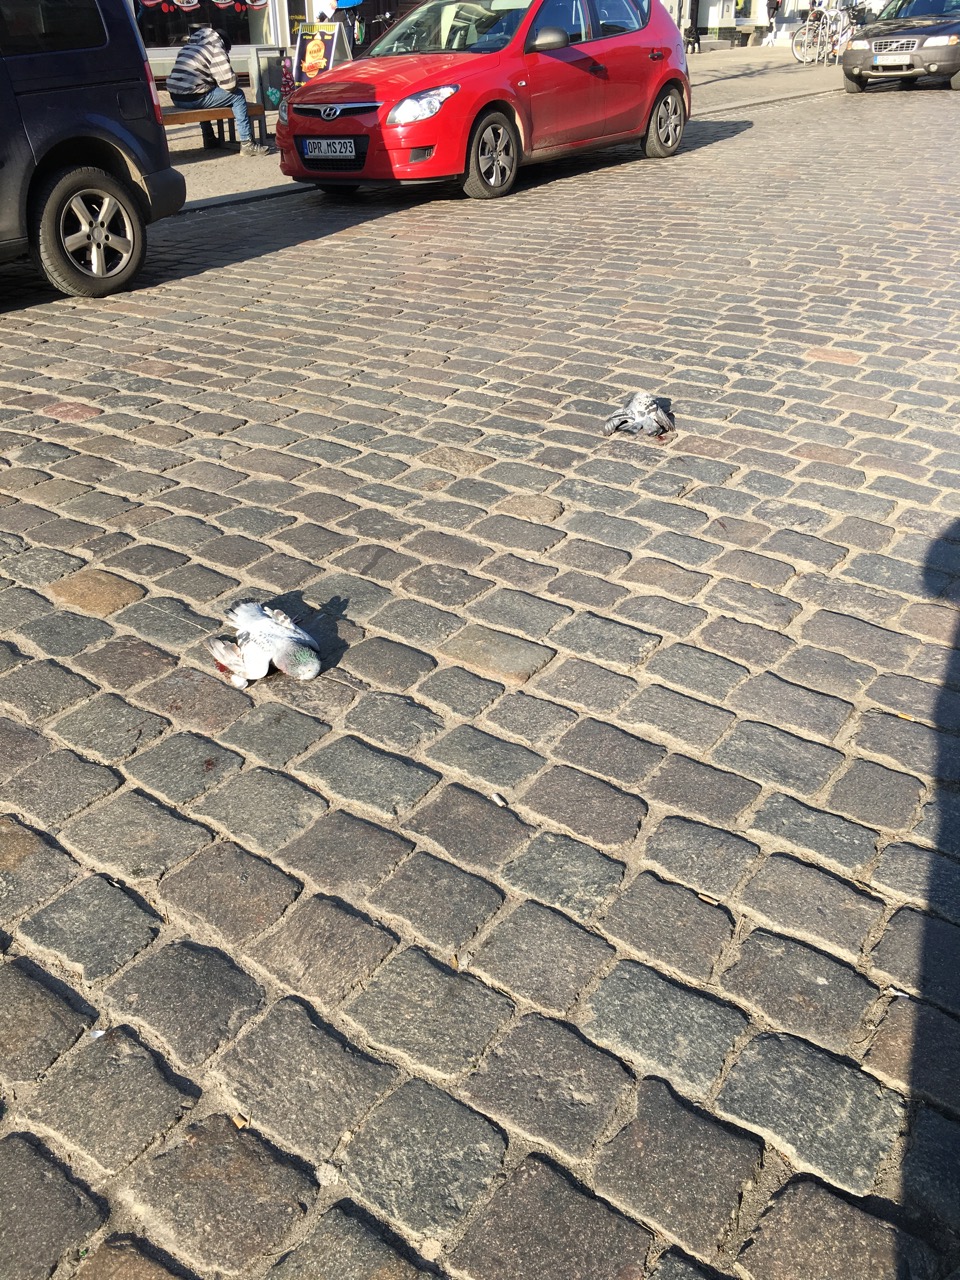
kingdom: Animalia
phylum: Chordata
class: Aves
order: Columbiformes
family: Columbidae
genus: Columba
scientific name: Columba livia
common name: Rock pigeon
